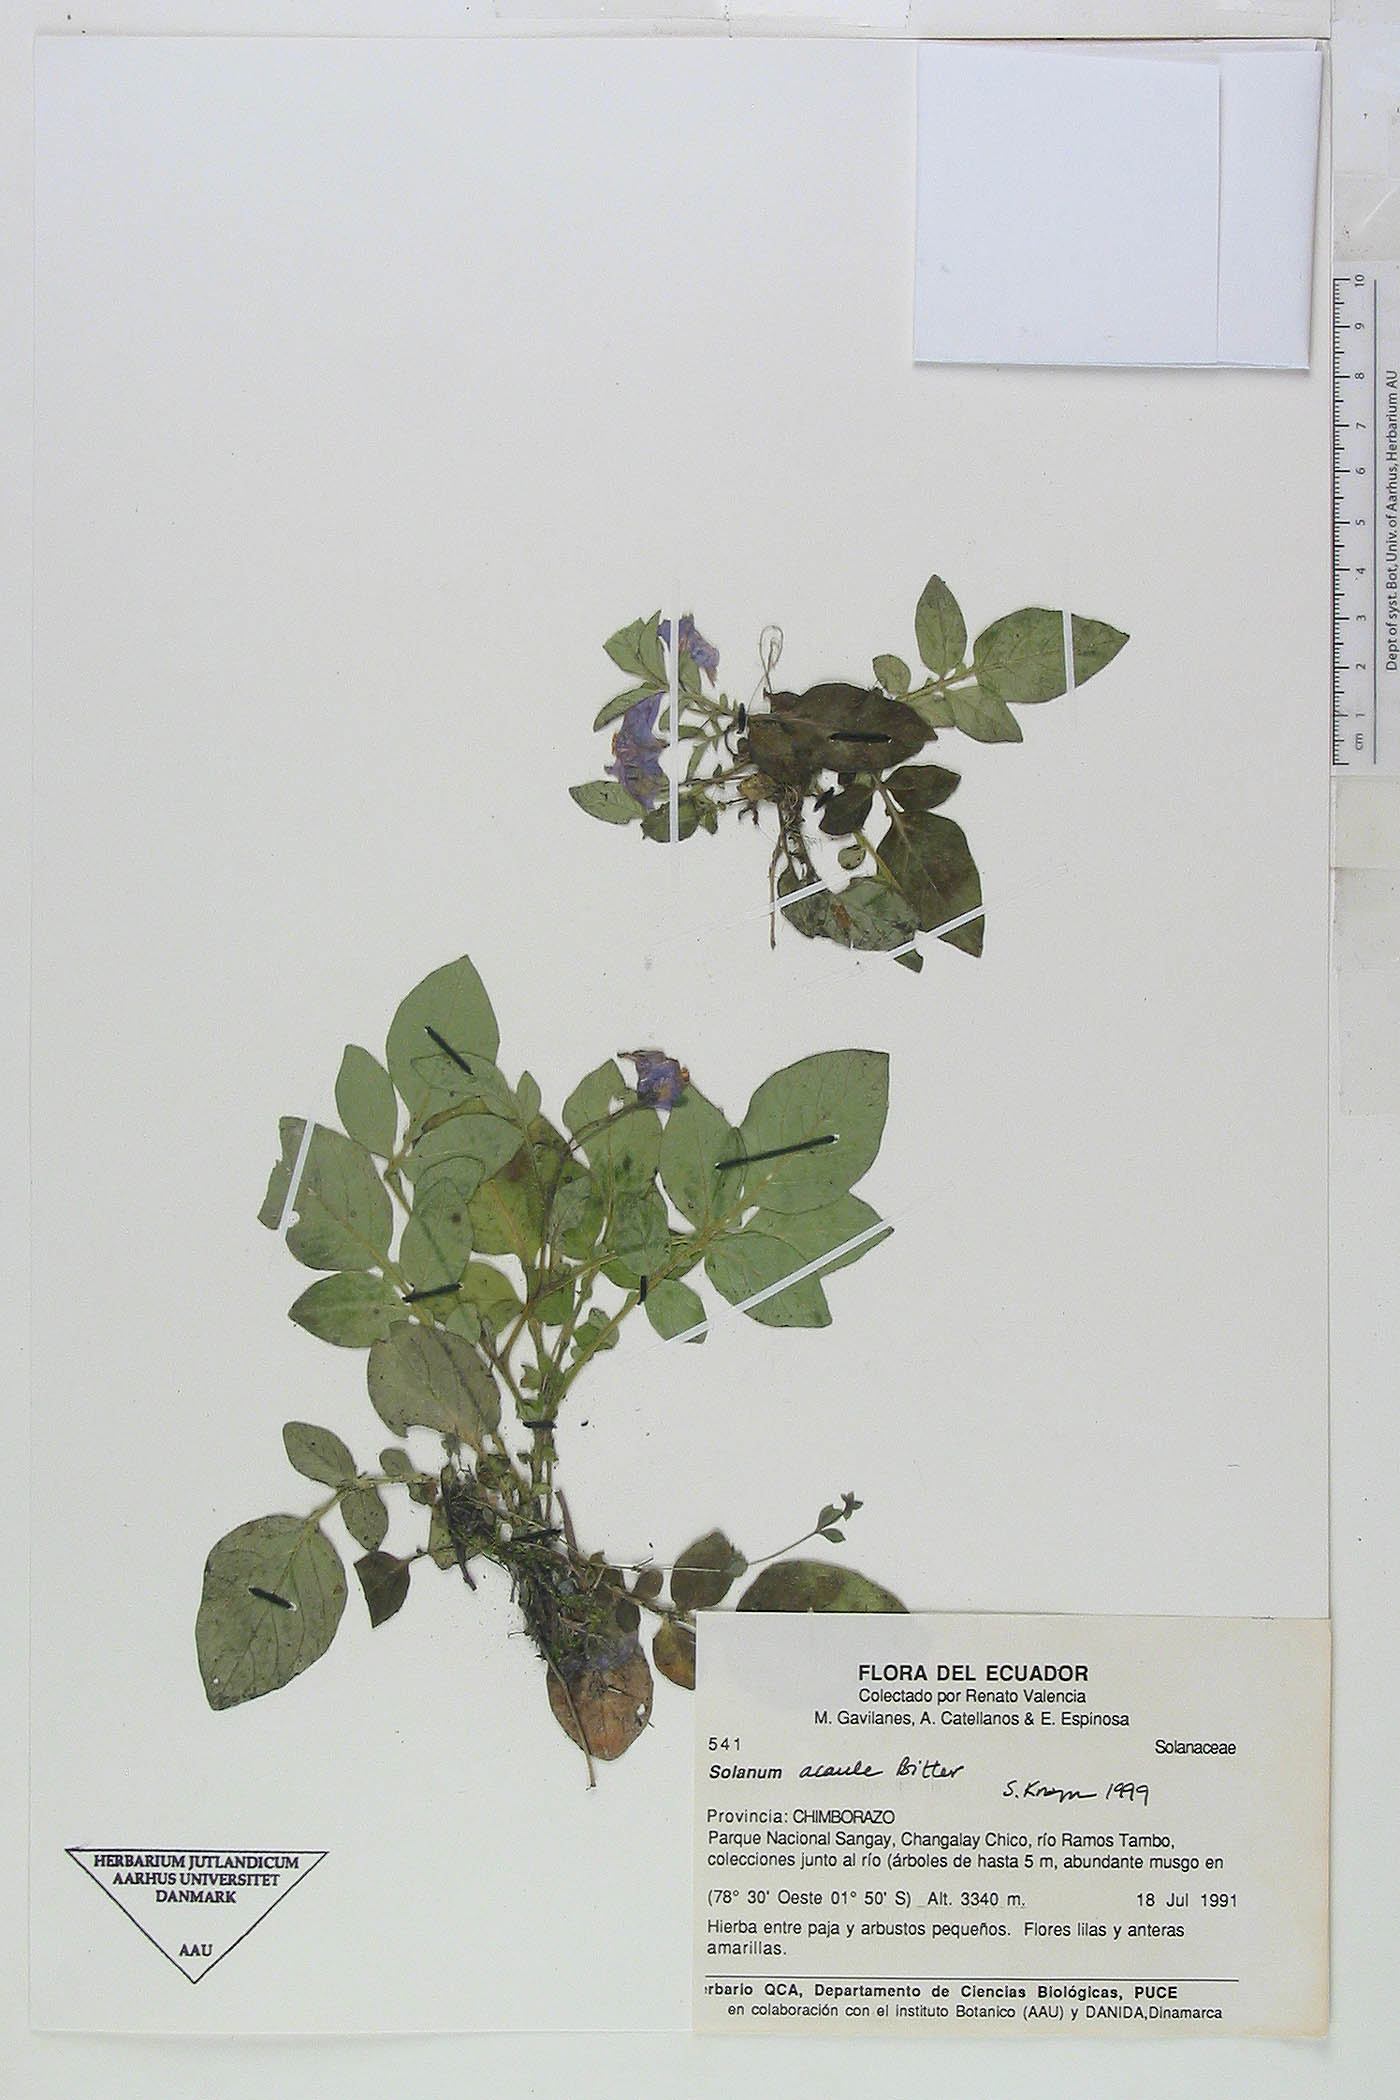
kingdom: Plantae
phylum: Tracheophyta
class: Magnoliopsida
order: Solanales
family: Solanaceae
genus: Solanum
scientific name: Solanum albicans
